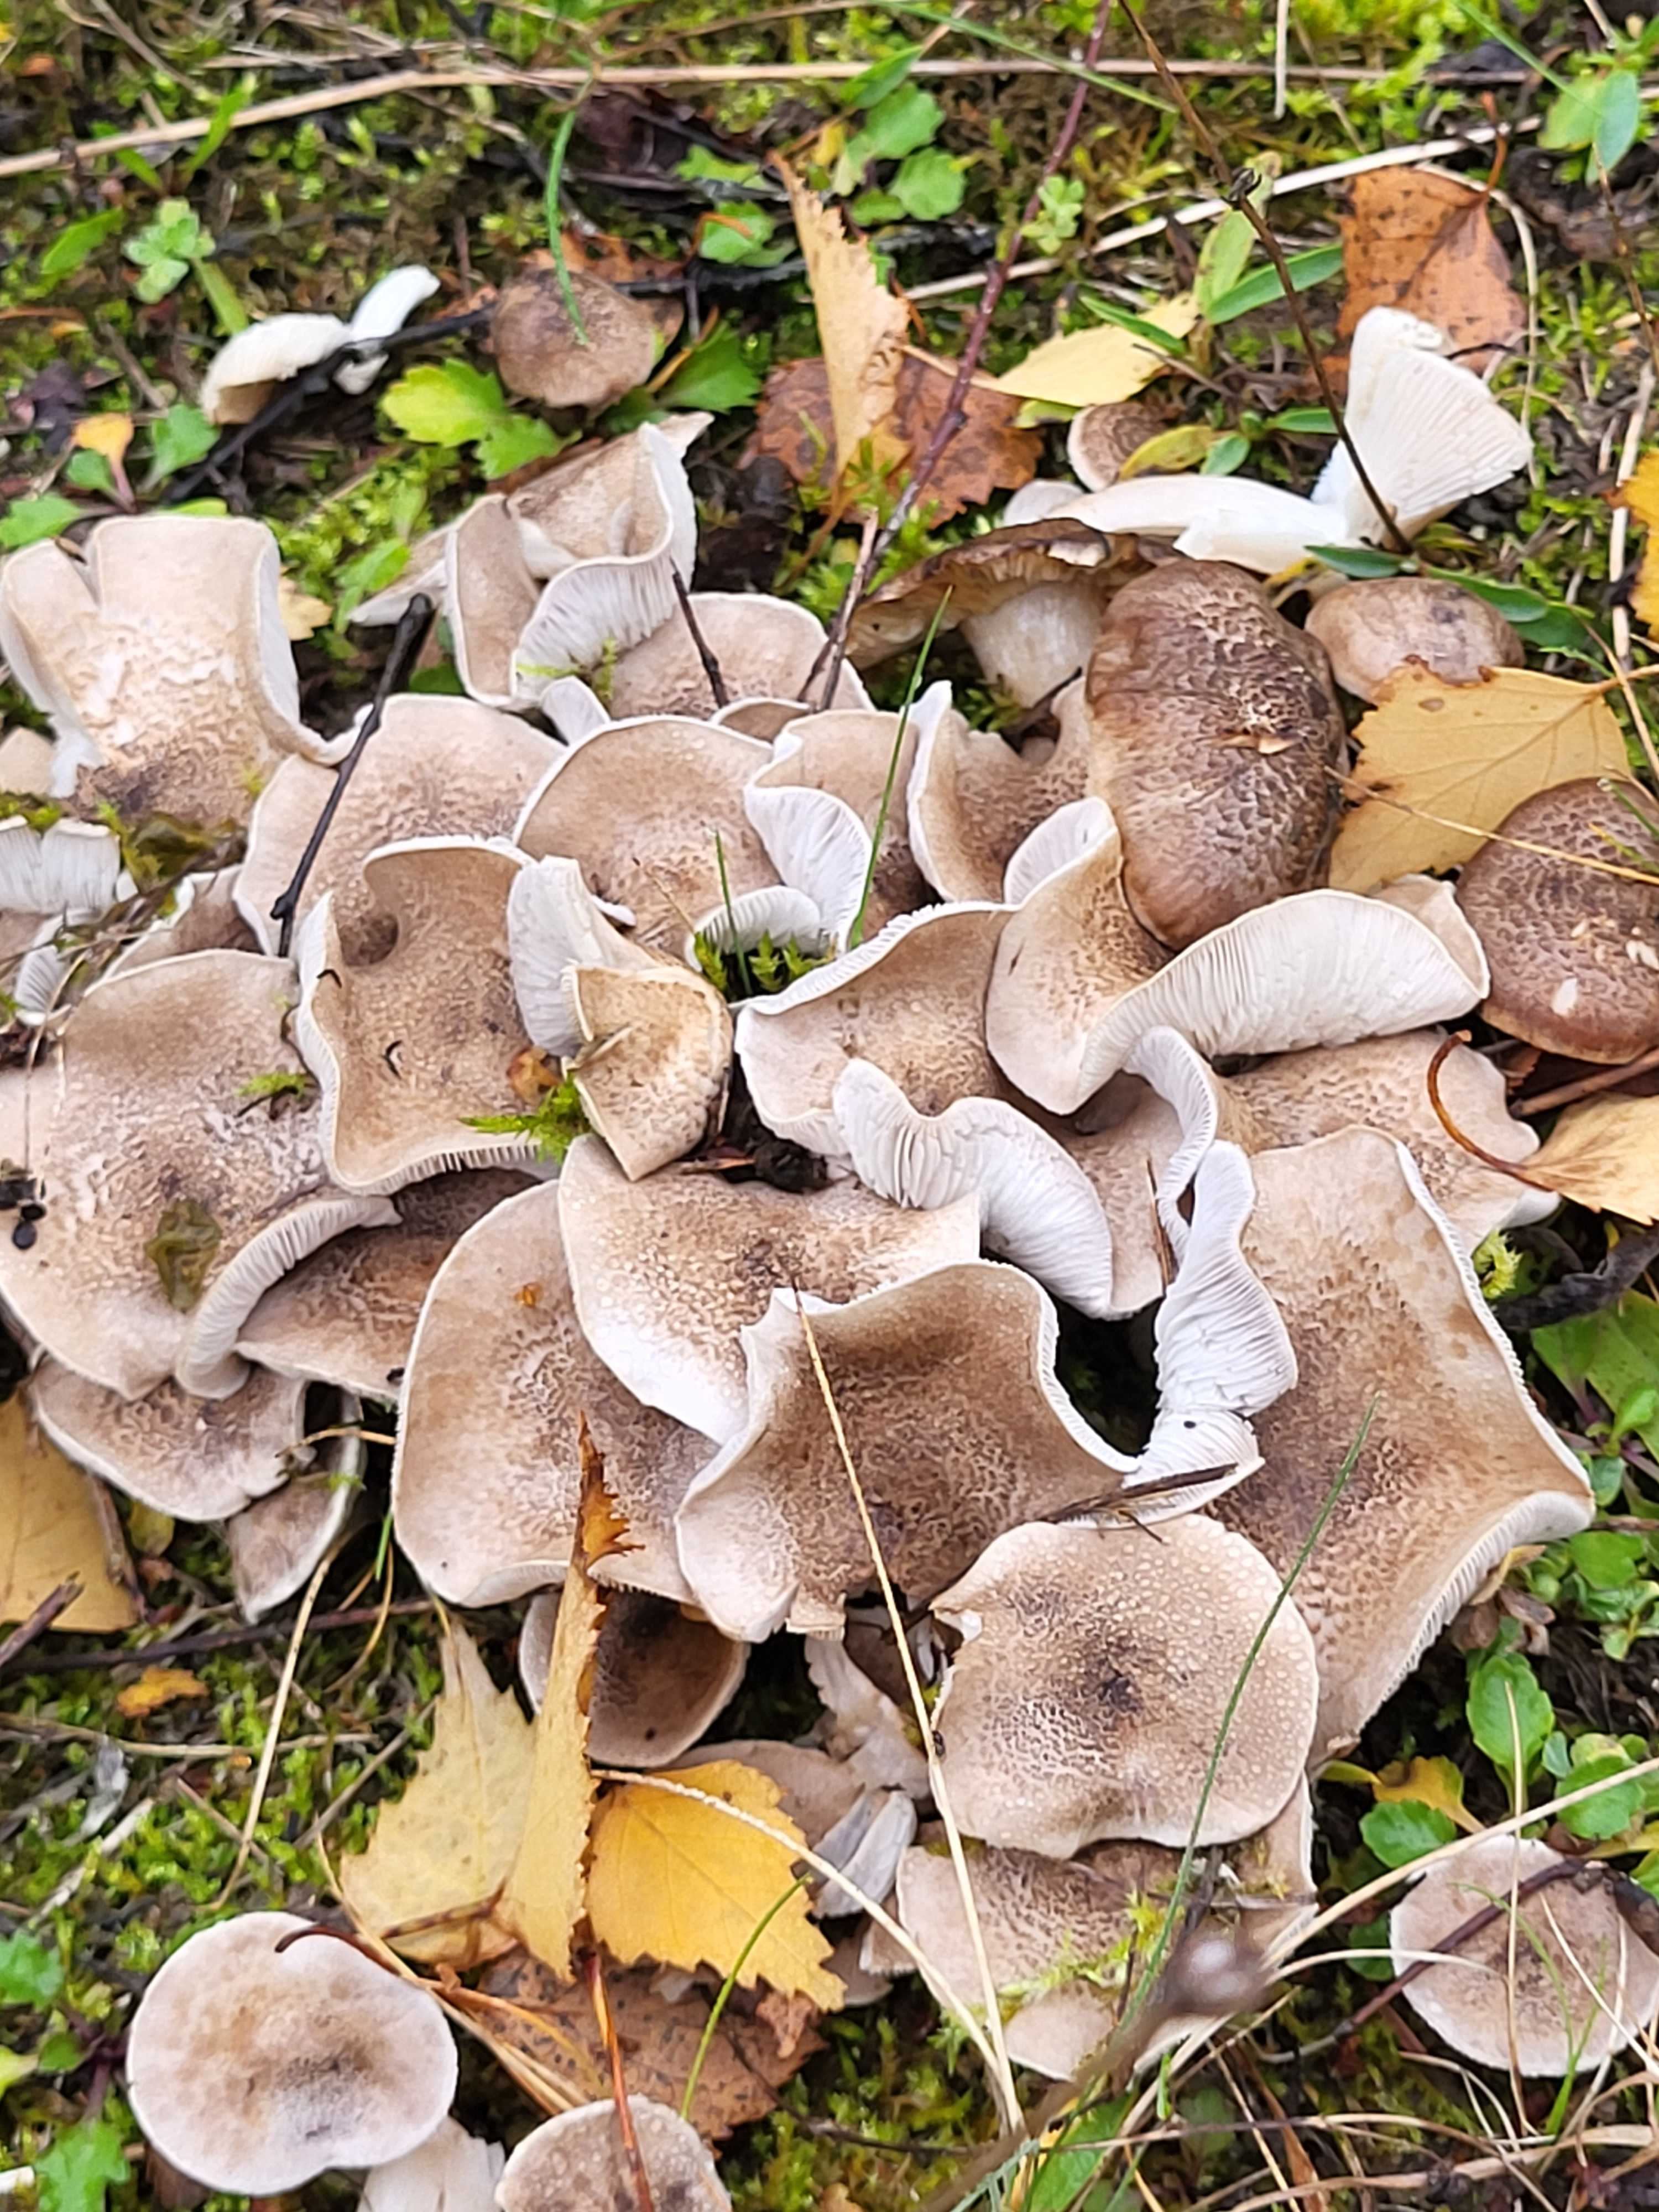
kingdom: Fungi
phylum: Basidiomycota
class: Agaricomycetes
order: Agaricales
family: Tricholomataceae
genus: Tricholoma
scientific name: Tricholoma
